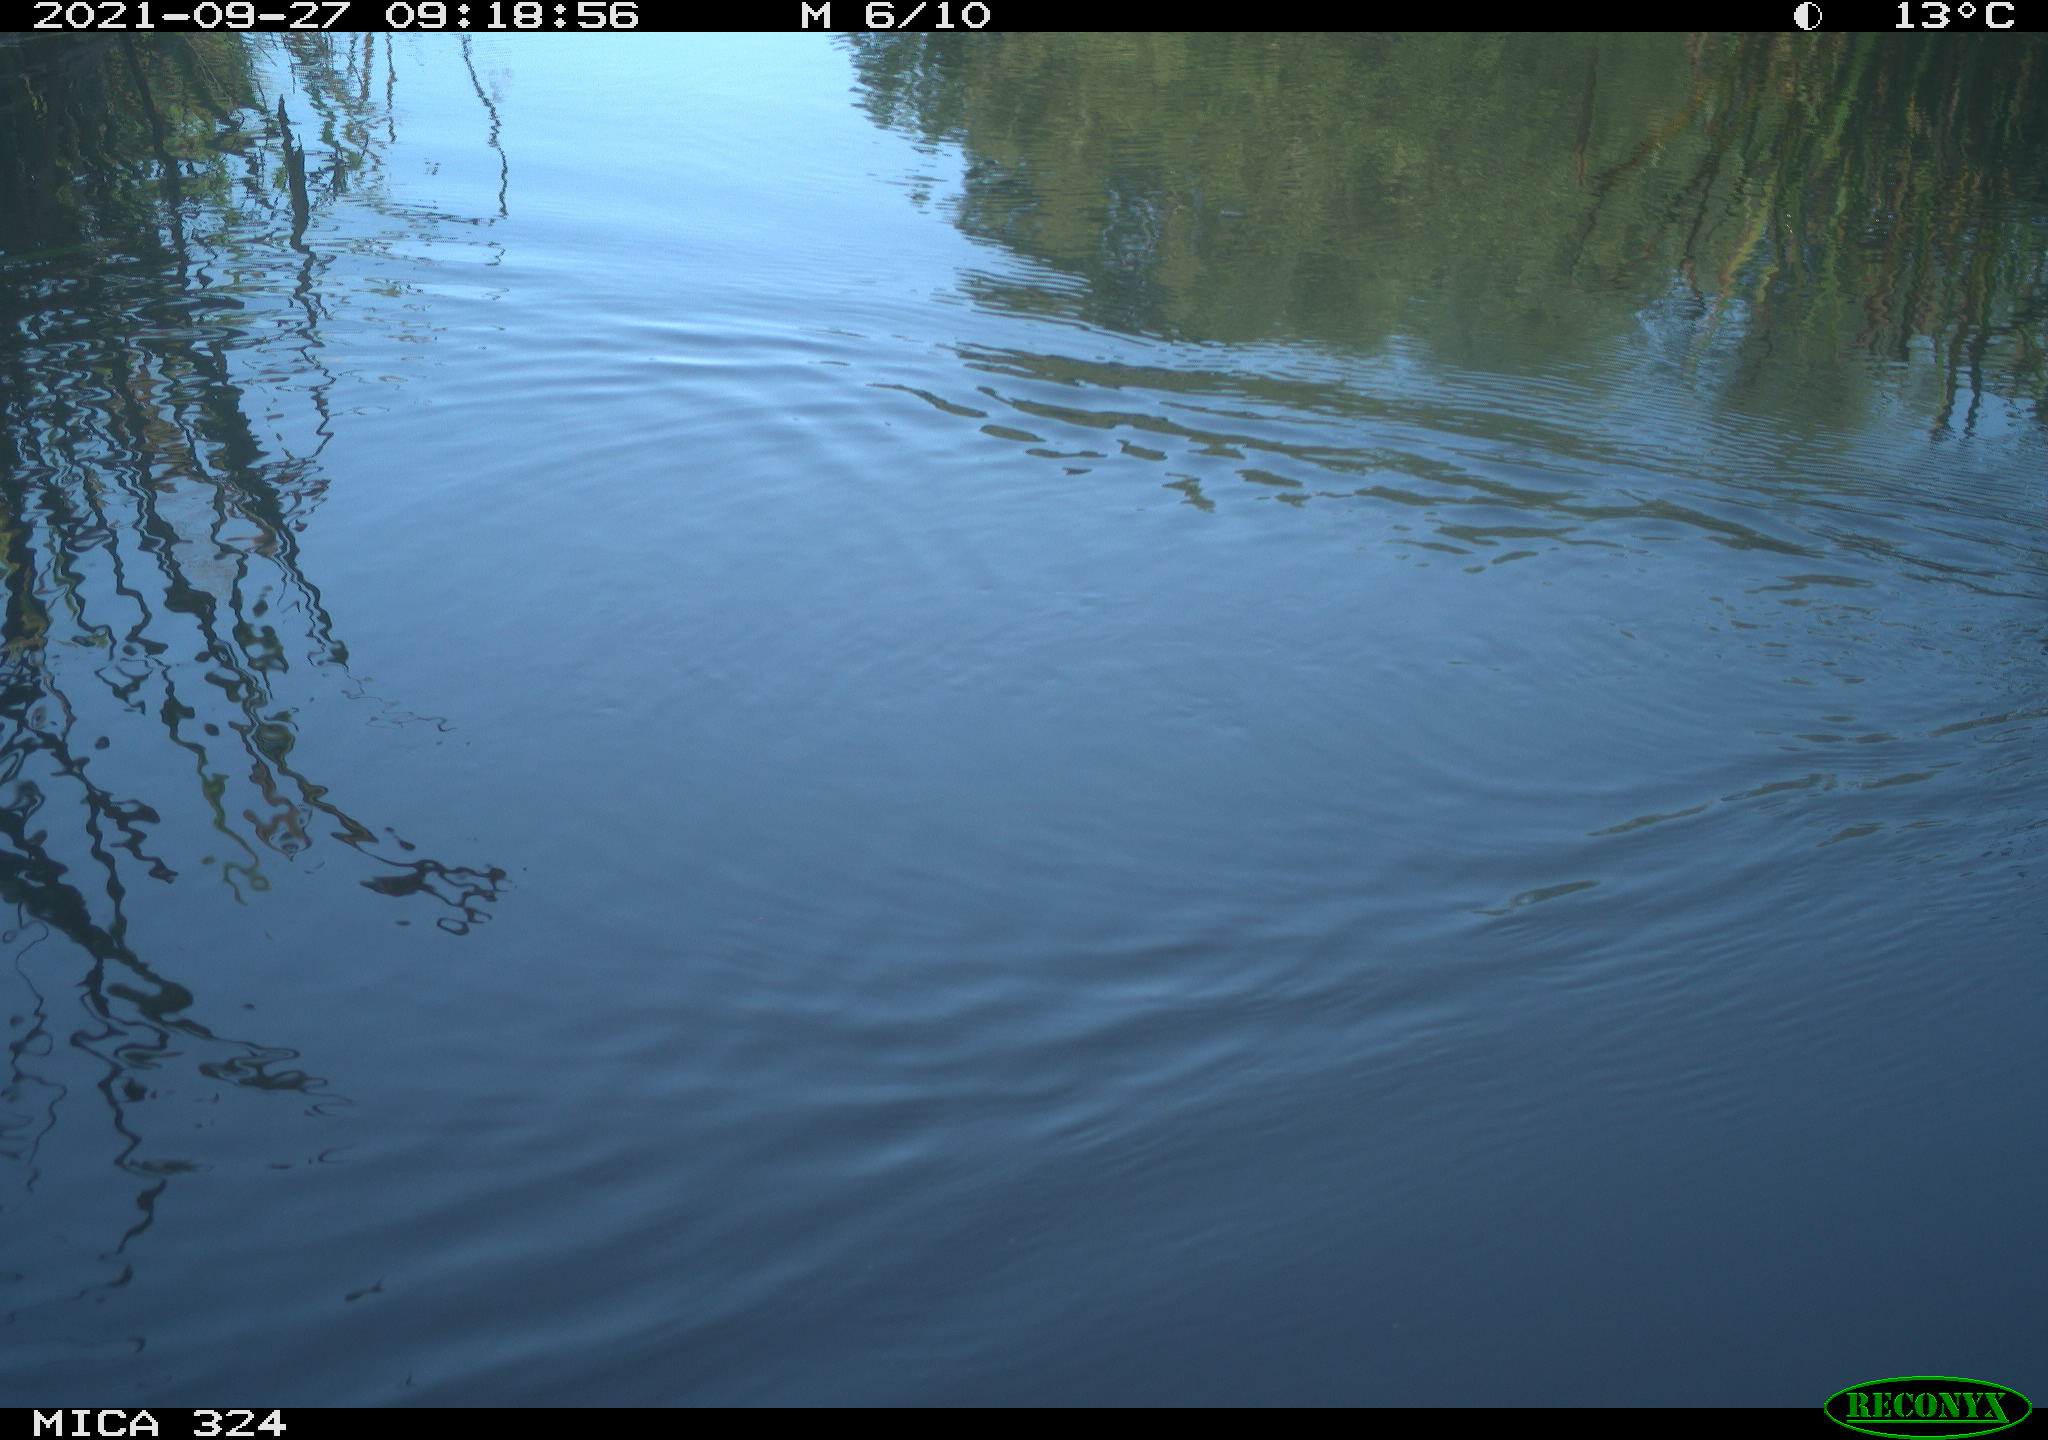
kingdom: Animalia
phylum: Chordata
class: Aves
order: Gruiformes
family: Rallidae
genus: Gallinula
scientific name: Gallinula chloropus
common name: Common moorhen
